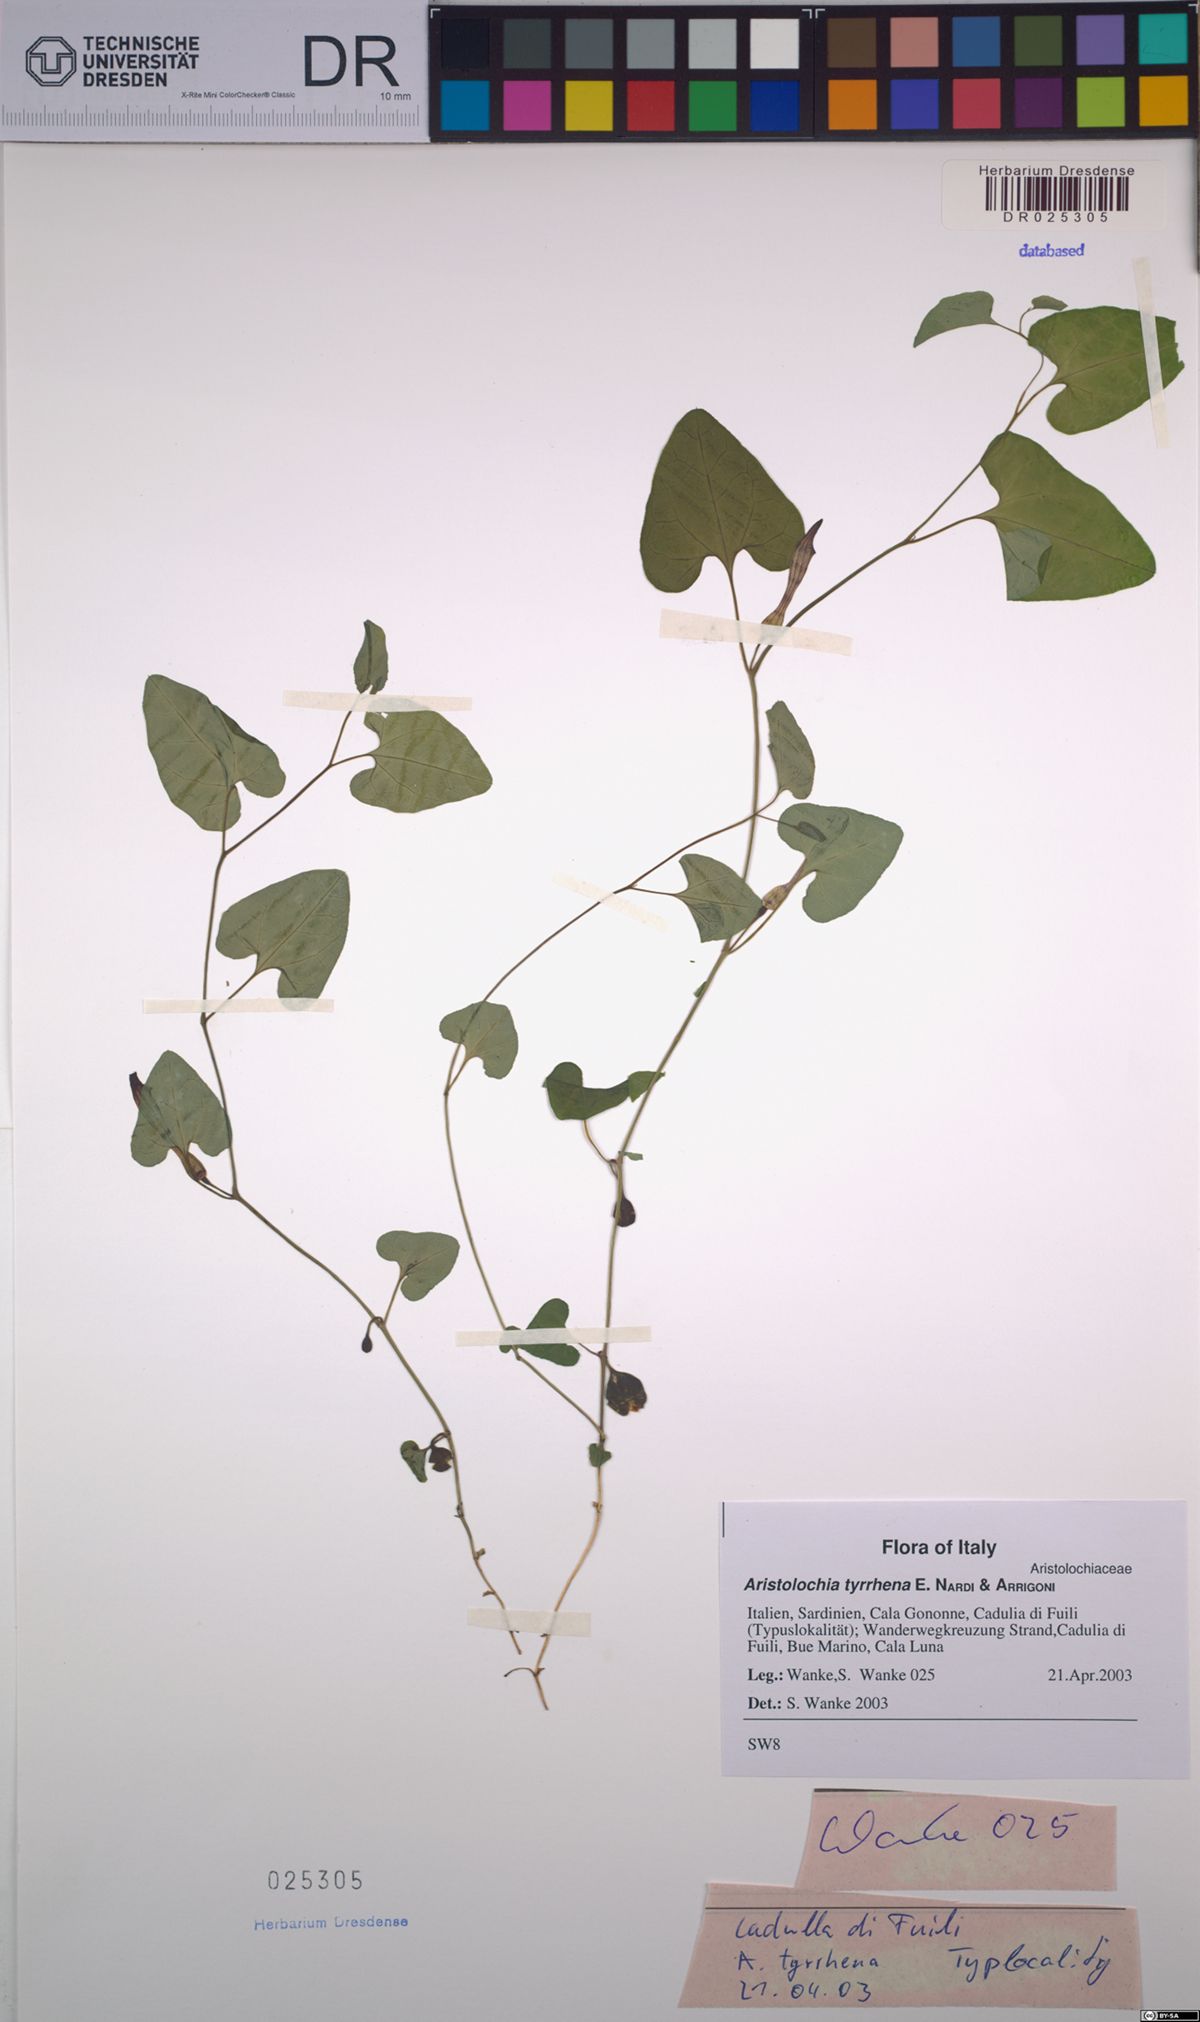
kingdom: Plantae
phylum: Tracheophyta
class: Magnoliopsida
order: Piperales
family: Aristolochiaceae
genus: Aristolochia
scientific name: Aristolochia tyrrhena
